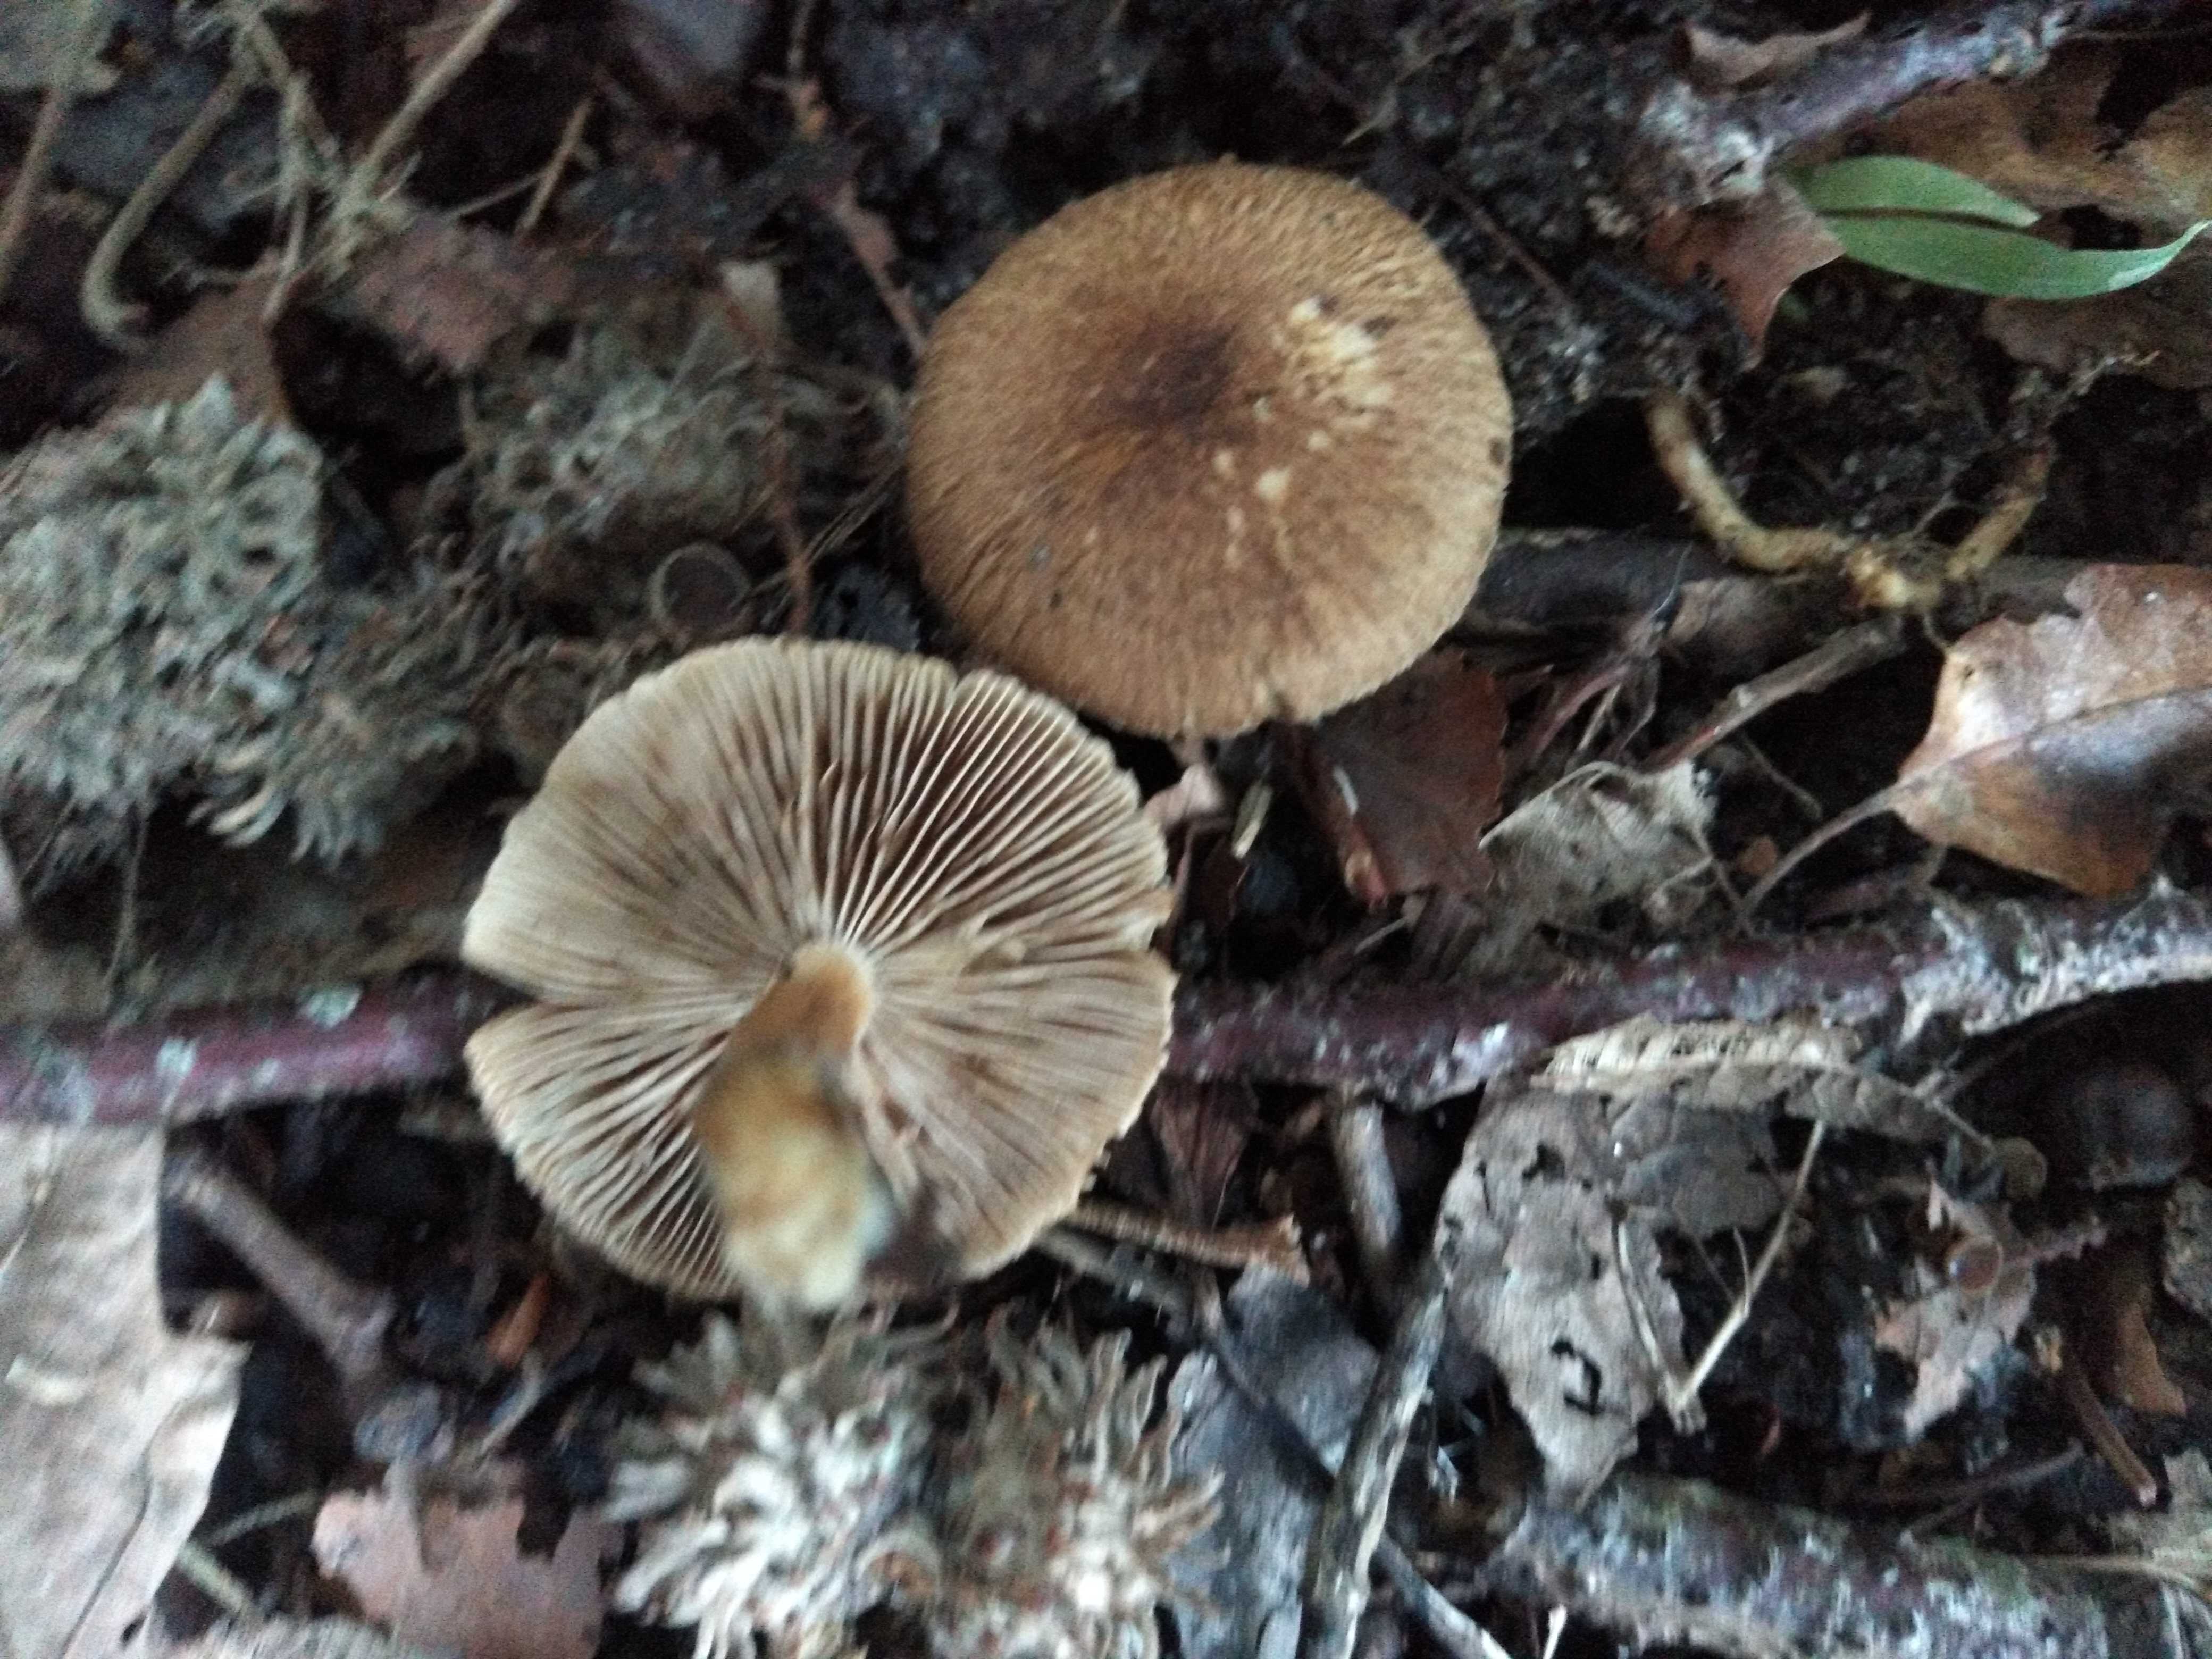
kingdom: Fungi
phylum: Basidiomycota
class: Agaricomycetes
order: Agaricales
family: Inocybaceae
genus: Inocybe
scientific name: Inocybe
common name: trævlhat
